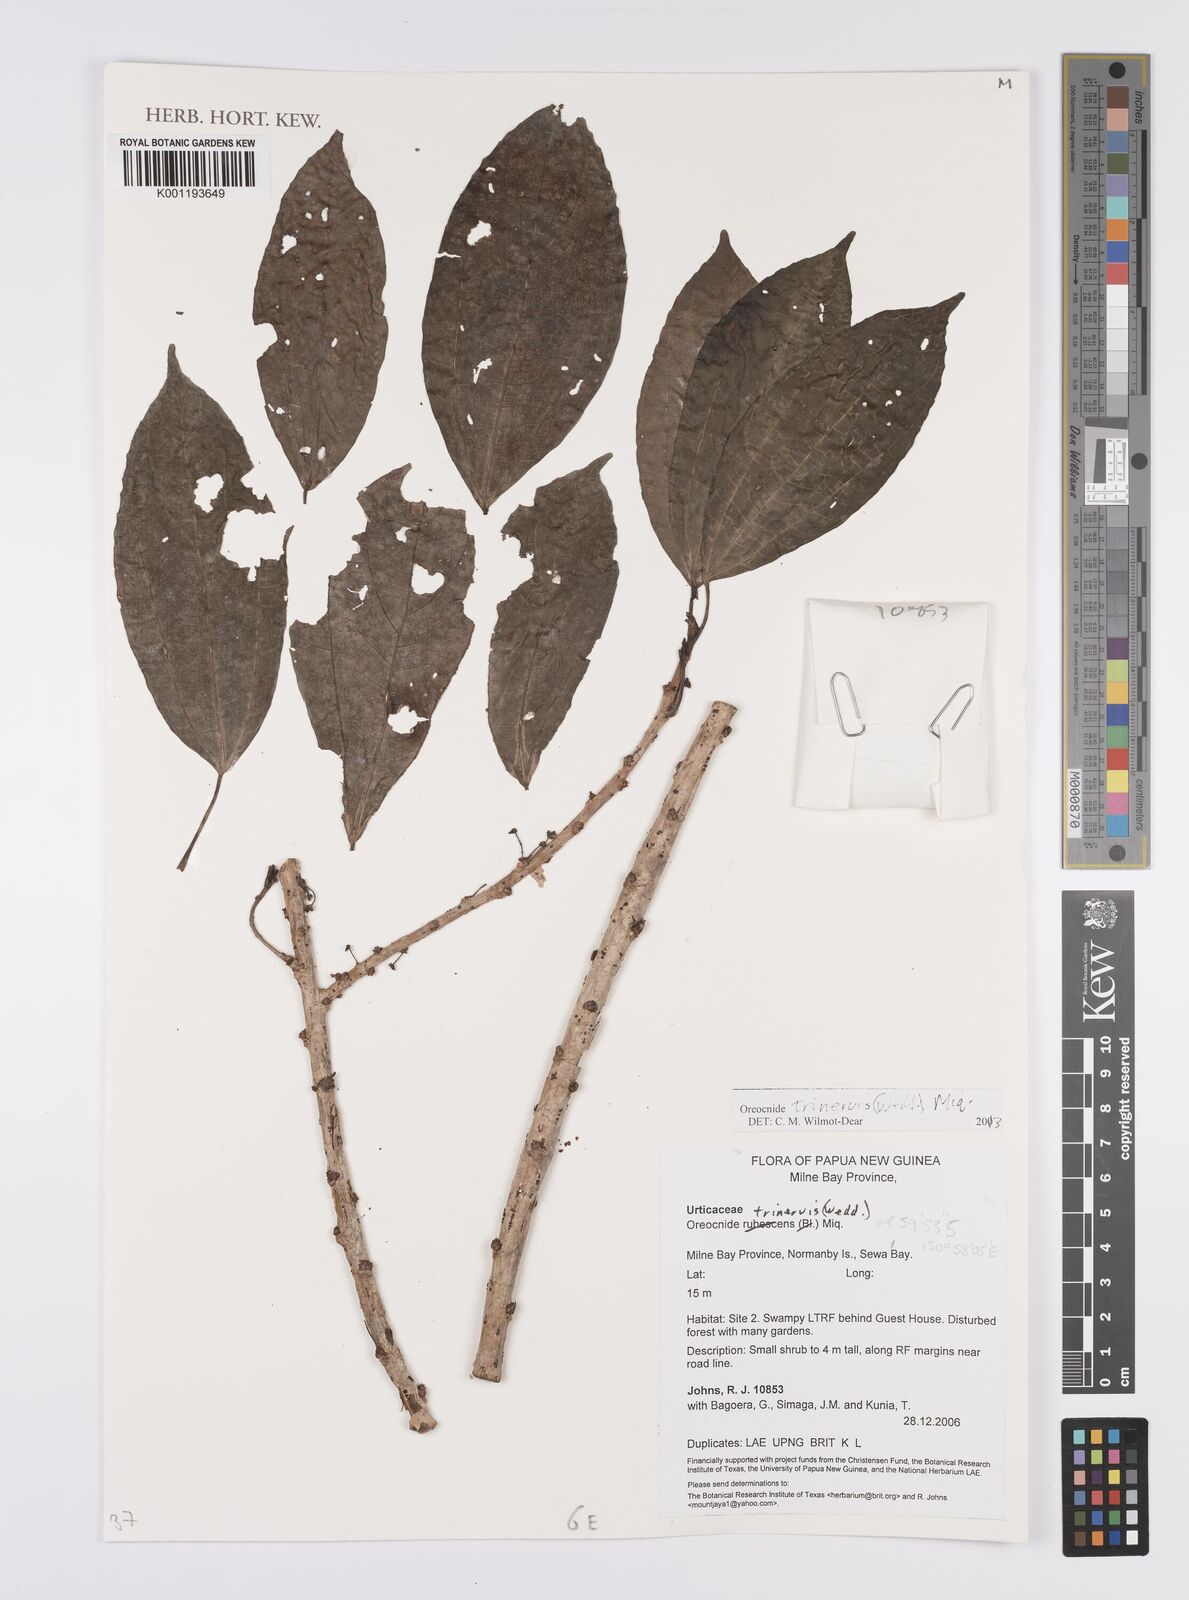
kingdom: Plantae
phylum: Tracheophyta
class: Magnoliopsida
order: Rosales
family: Urticaceae
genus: Oreocnide
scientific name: Oreocnide trinervis
